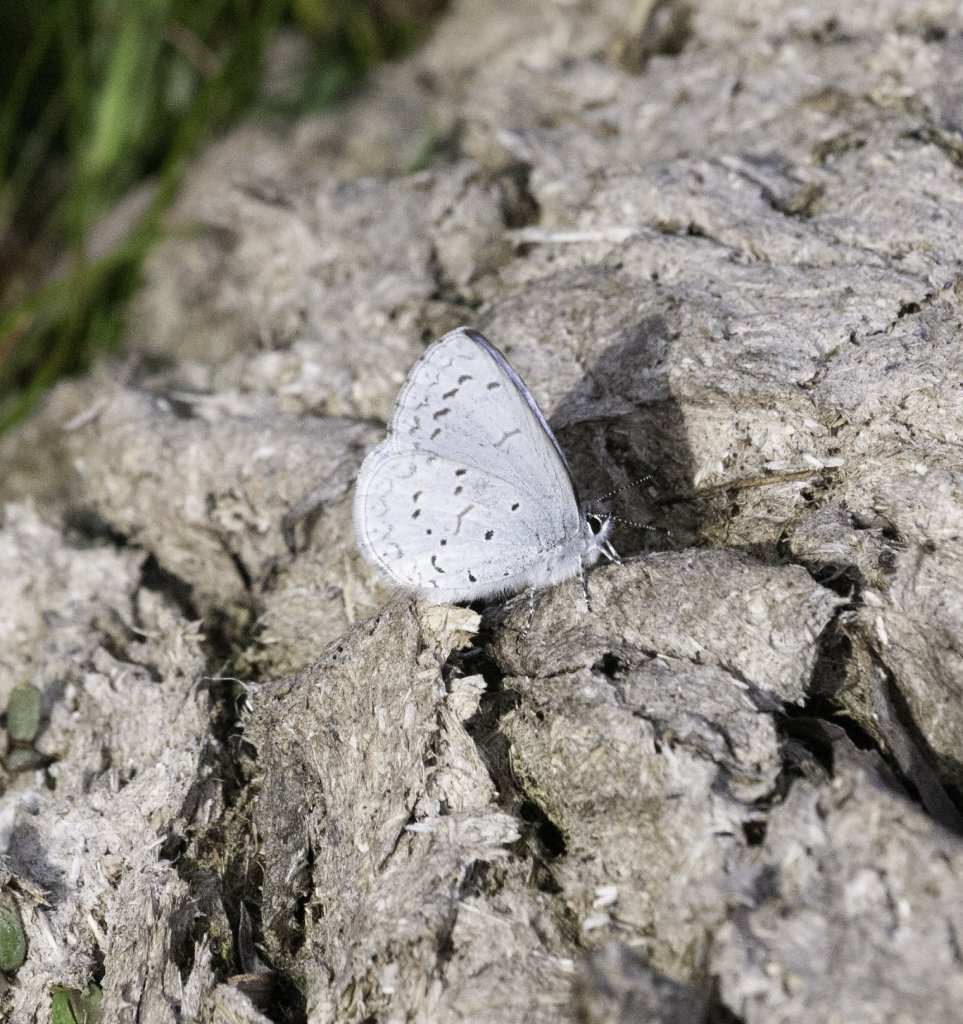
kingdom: Animalia
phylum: Arthropoda
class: Insecta
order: Lepidoptera
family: Lycaenidae
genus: Celastrina
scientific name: Celastrina ladon
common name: Echo Azure
